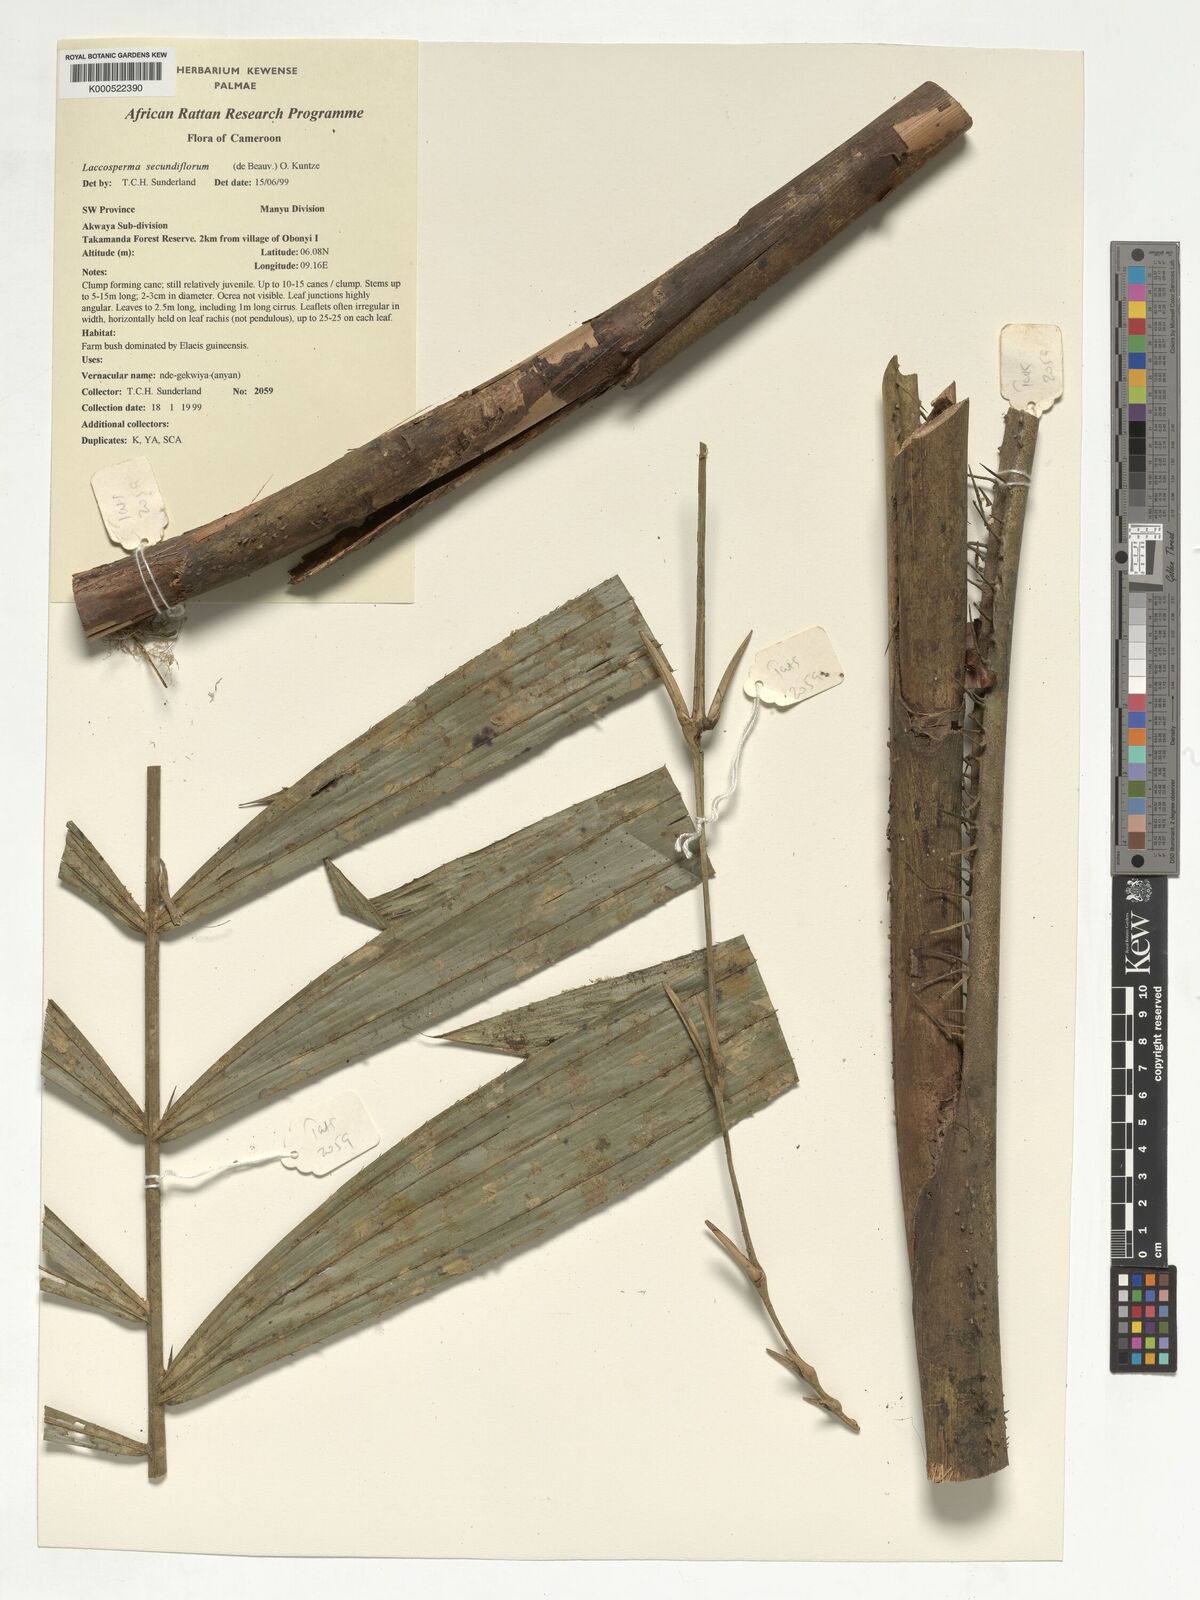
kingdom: Plantae
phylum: Tracheophyta
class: Liliopsida
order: Arecales
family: Arecaceae
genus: Laccosperma
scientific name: Laccosperma secundiflorum
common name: Rattan
